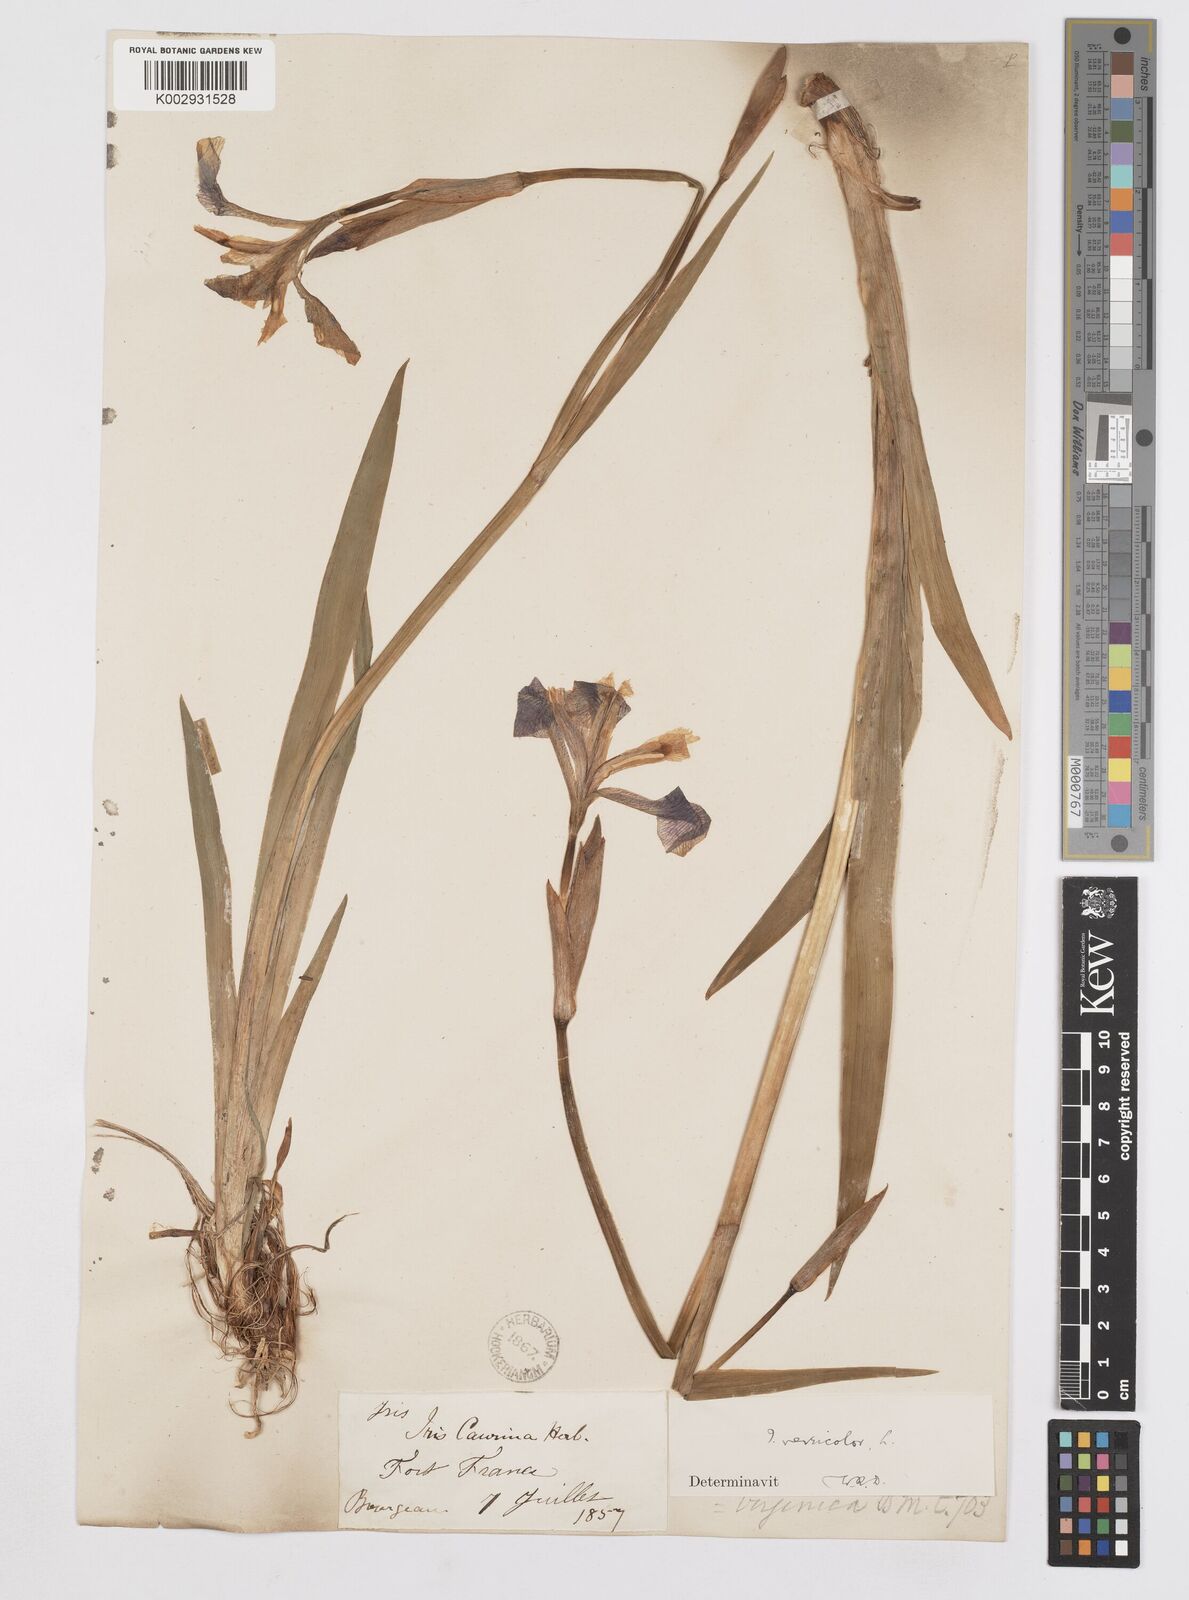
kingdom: Plantae
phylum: Tracheophyta
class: Liliopsida
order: Asparagales
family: Iridaceae
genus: Iris
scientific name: Iris versicolor
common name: Purple iris
